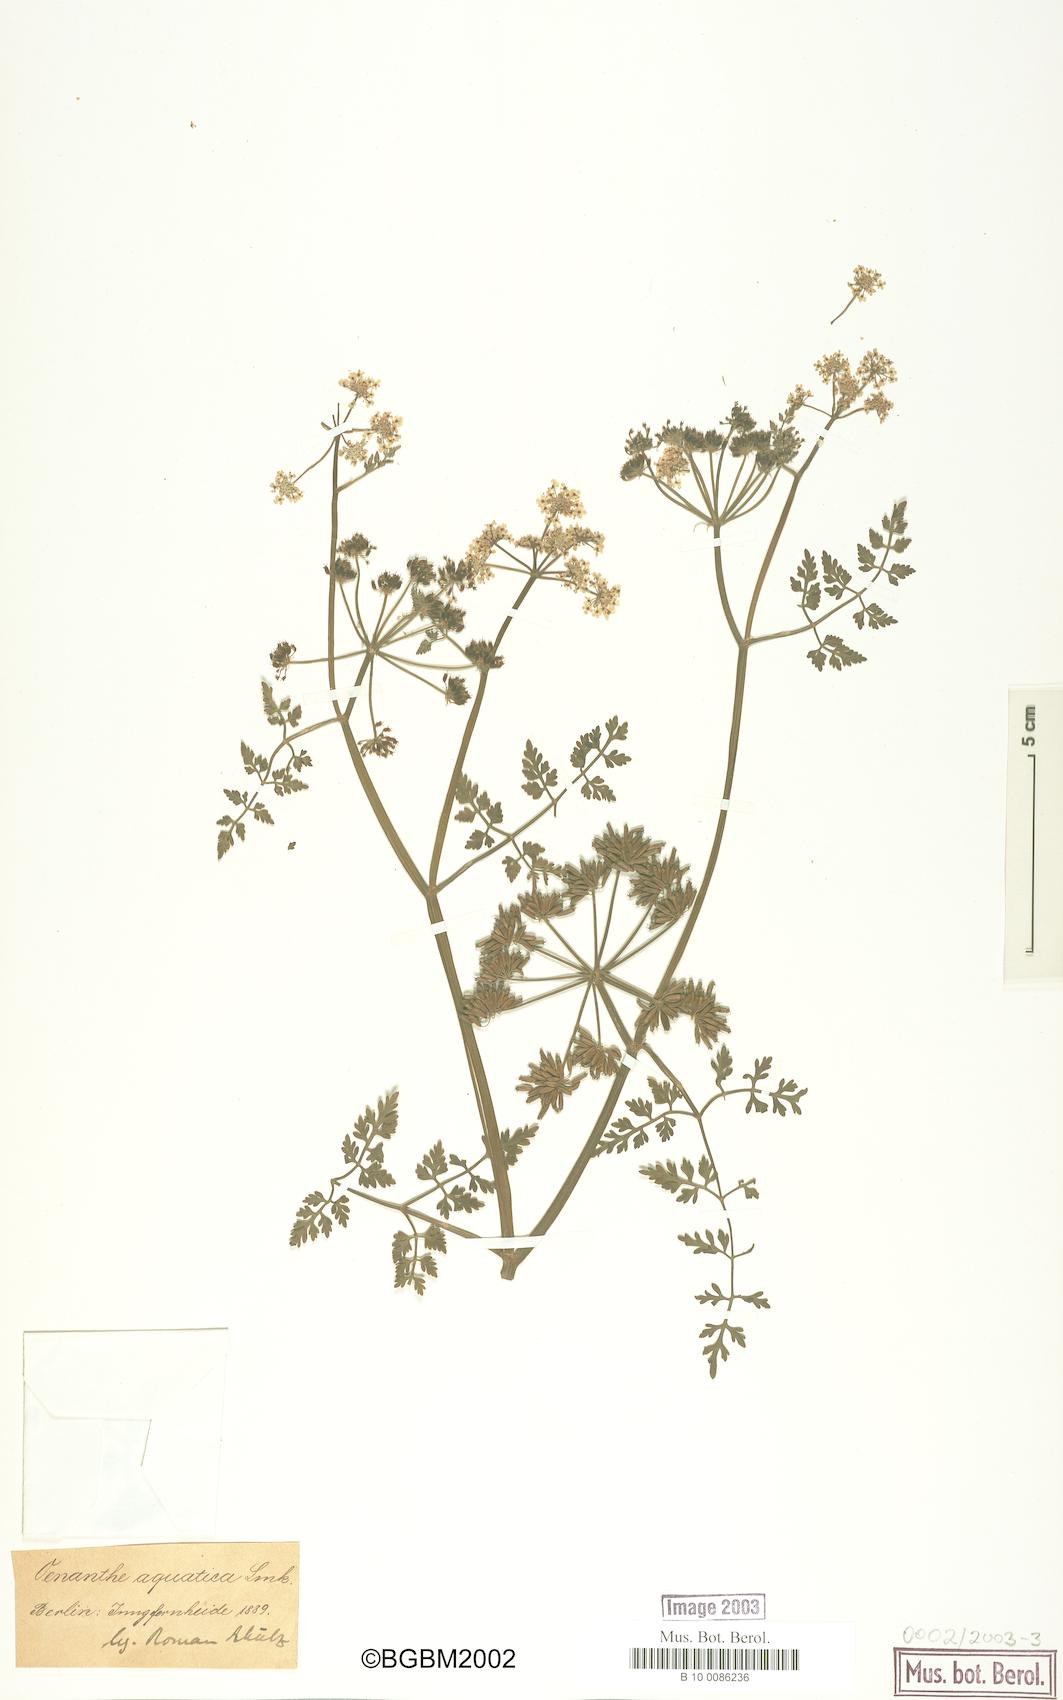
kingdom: Plantae
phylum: Tracheophyta
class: Magnoliopsida
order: Apiales
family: Apiaceae
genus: Oenanthe
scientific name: Oenanthe aquatica
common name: Fine-leaved water-dropwort
